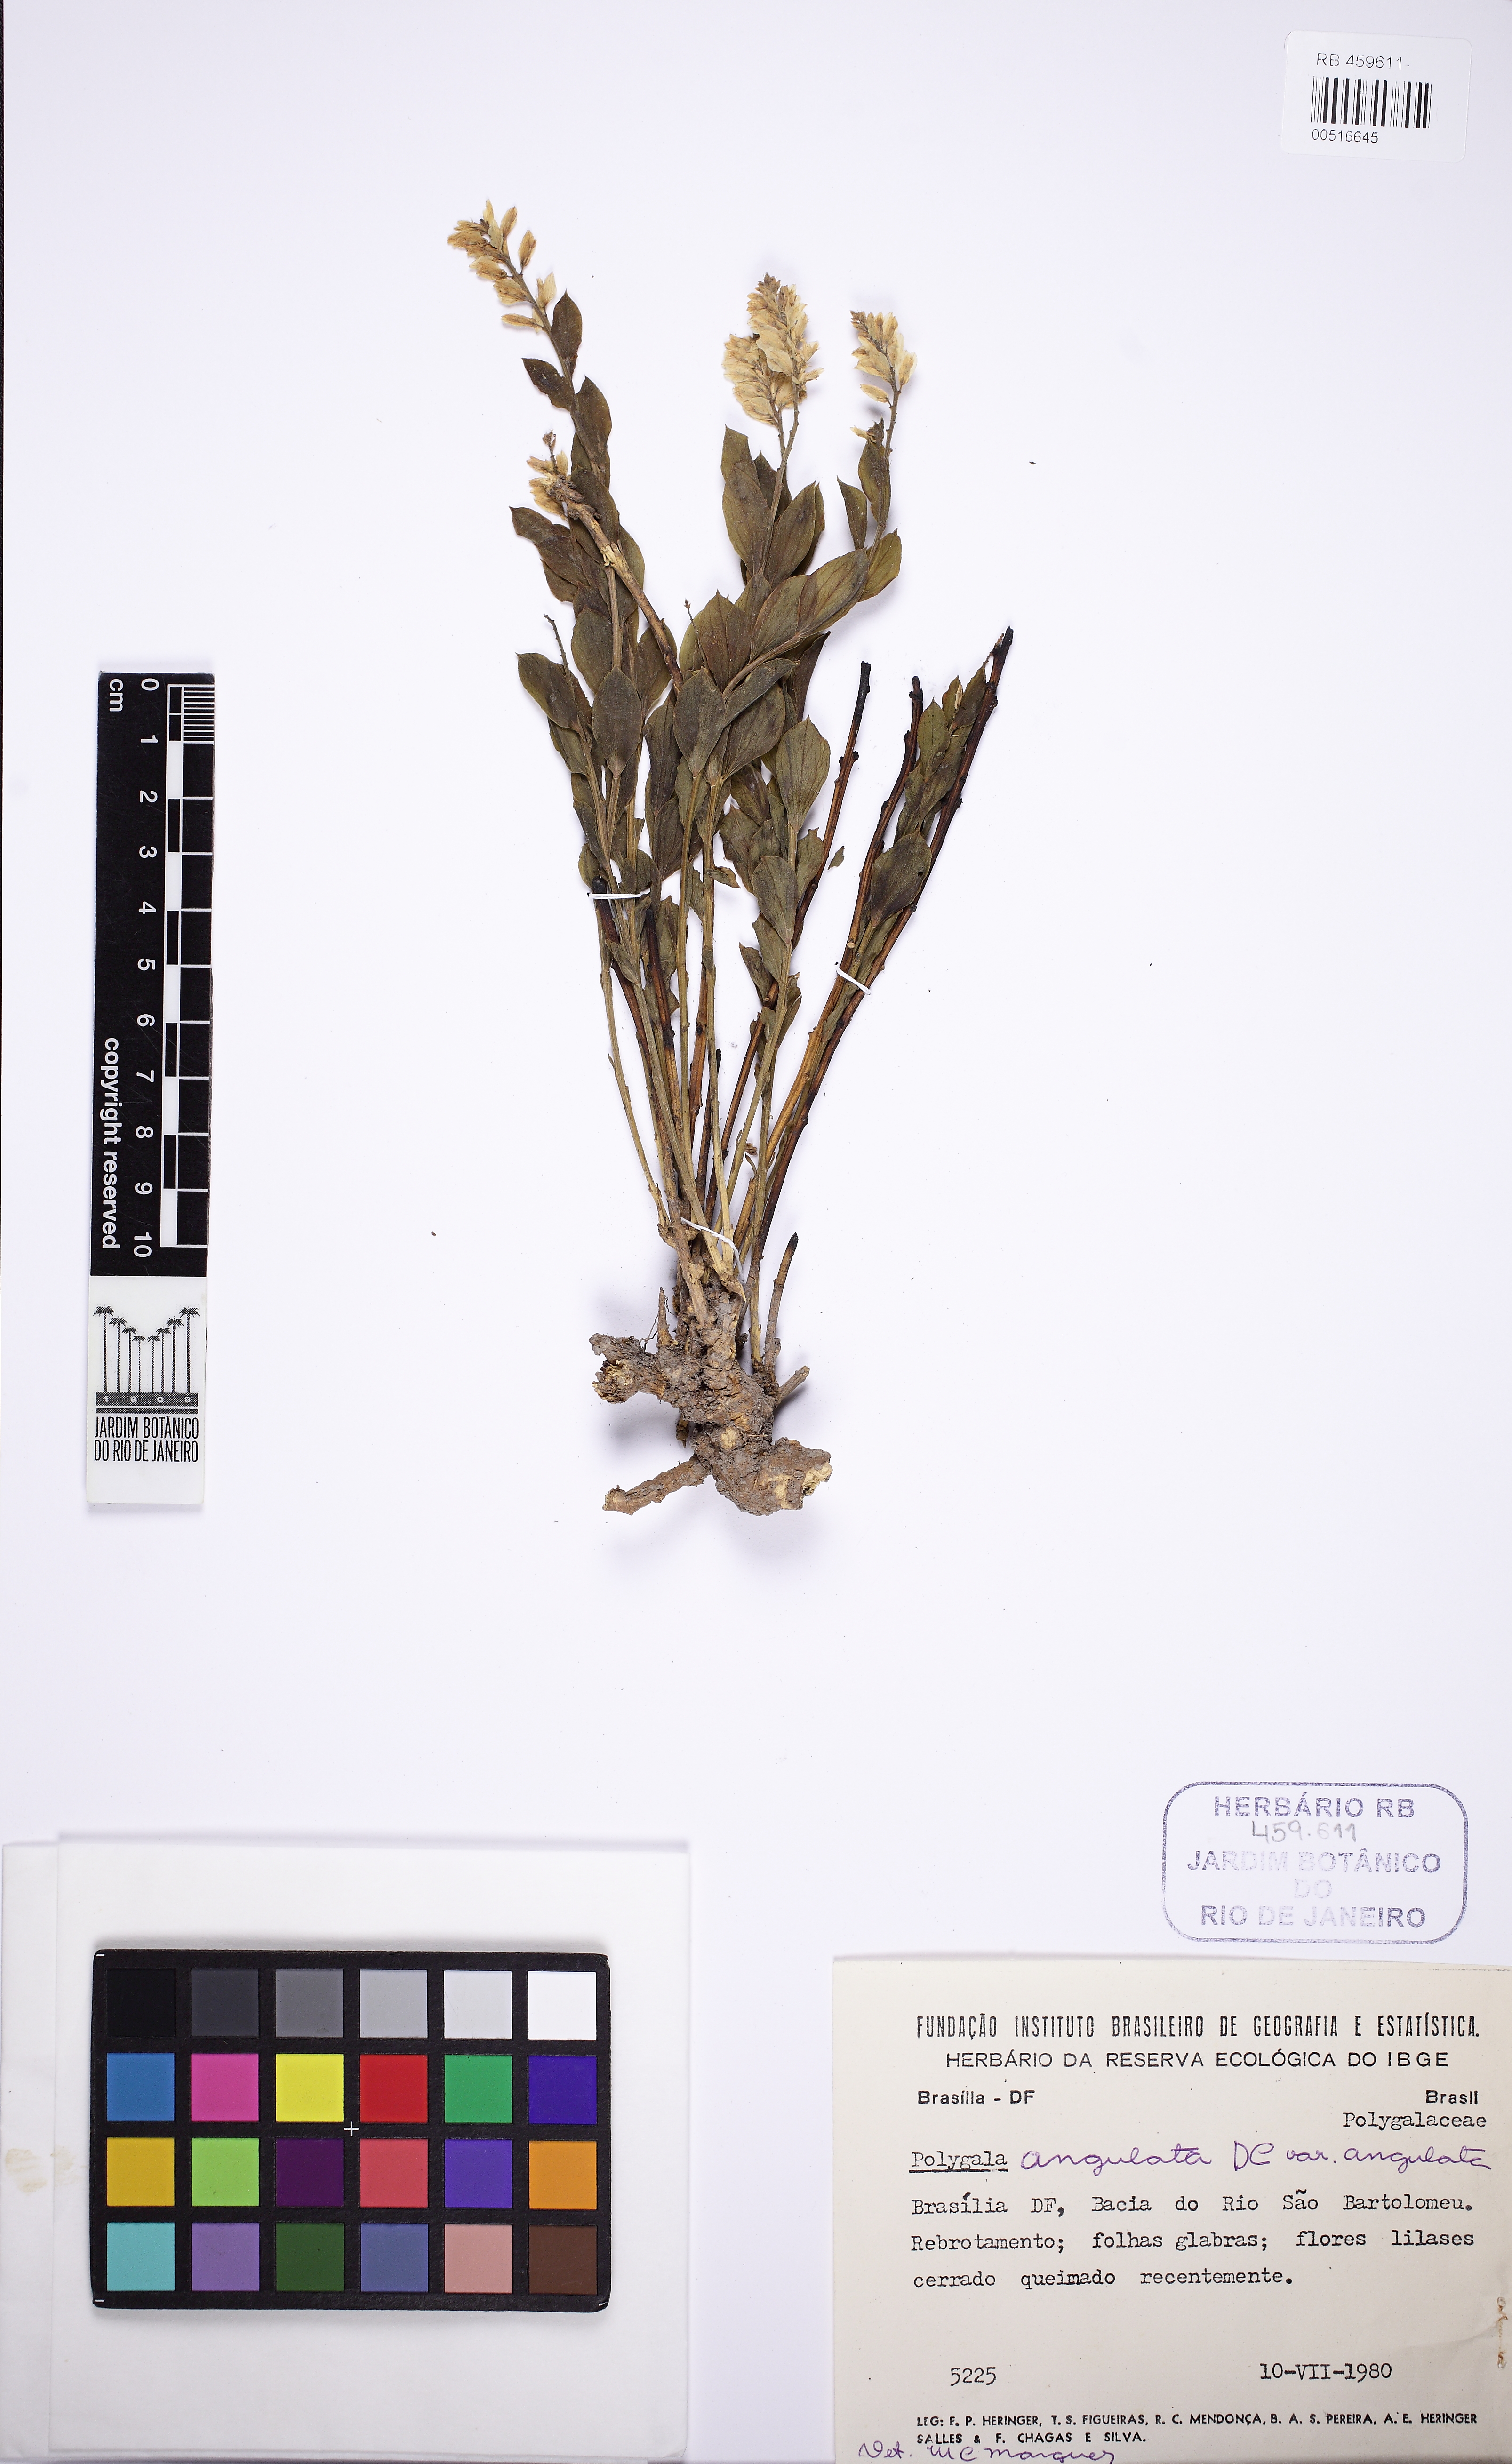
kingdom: Plantae
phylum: Tracheophyta
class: Magnoliopsida
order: Fabales
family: Polygalaceae
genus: Polygala
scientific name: Polygala poaya
